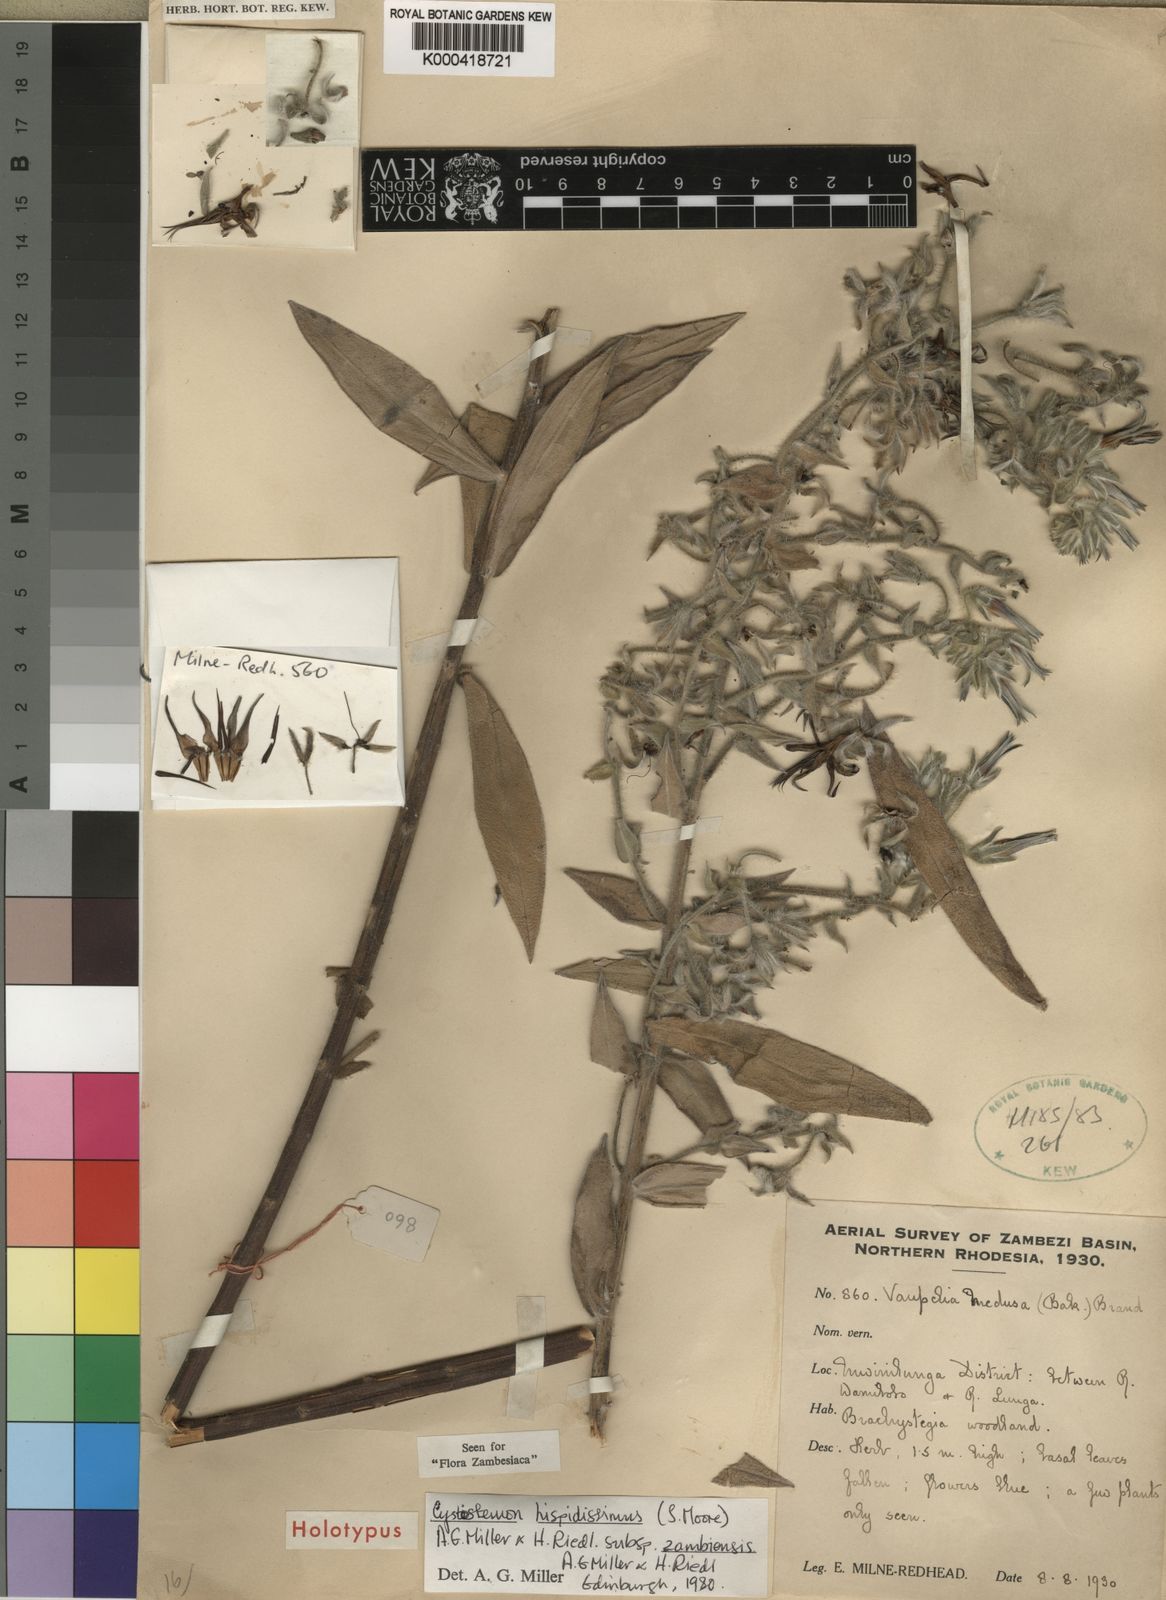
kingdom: Plantae
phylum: Tracheophyta
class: Magnoliopsida
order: Boraginales
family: Boraginaceae
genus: Cystostemon
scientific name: Cystostemon hispidissimus
